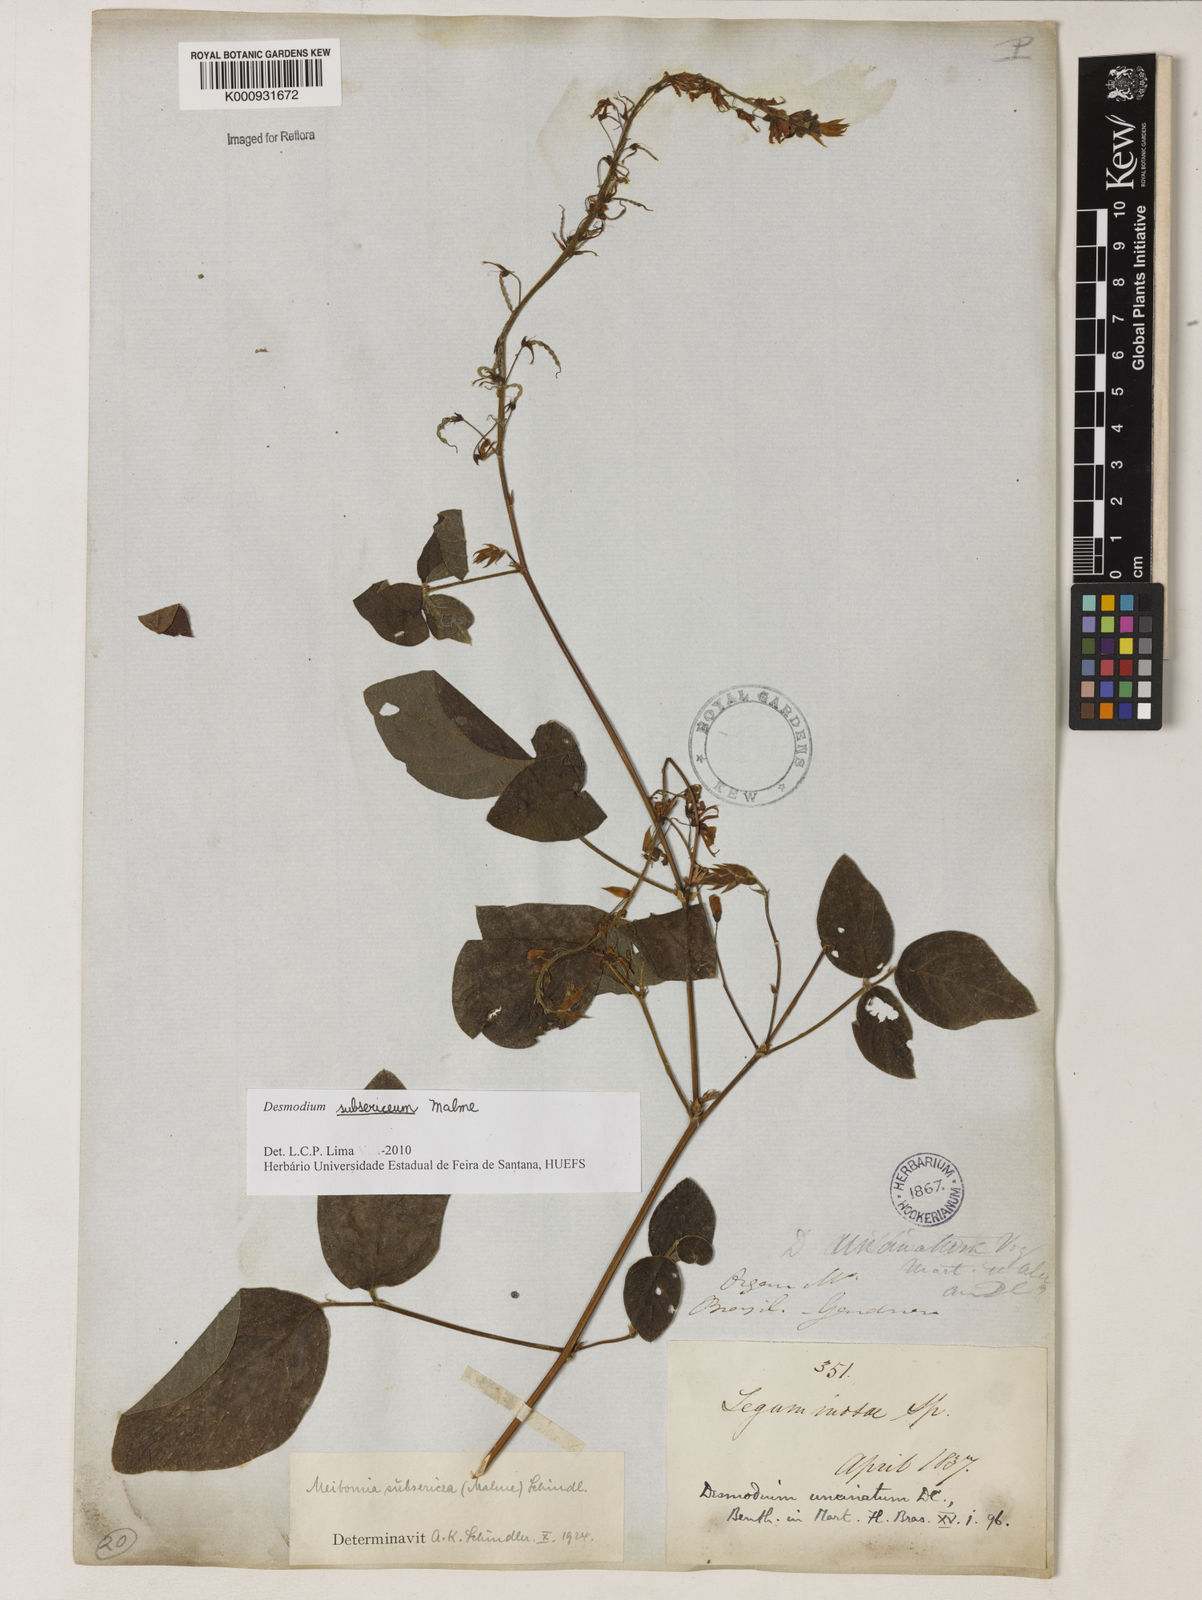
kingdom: Plantae
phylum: Tracheophyta
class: Magnoliopsida
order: Fabales
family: Fabaceae
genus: Desmodium
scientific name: Desmodium subsericeum
